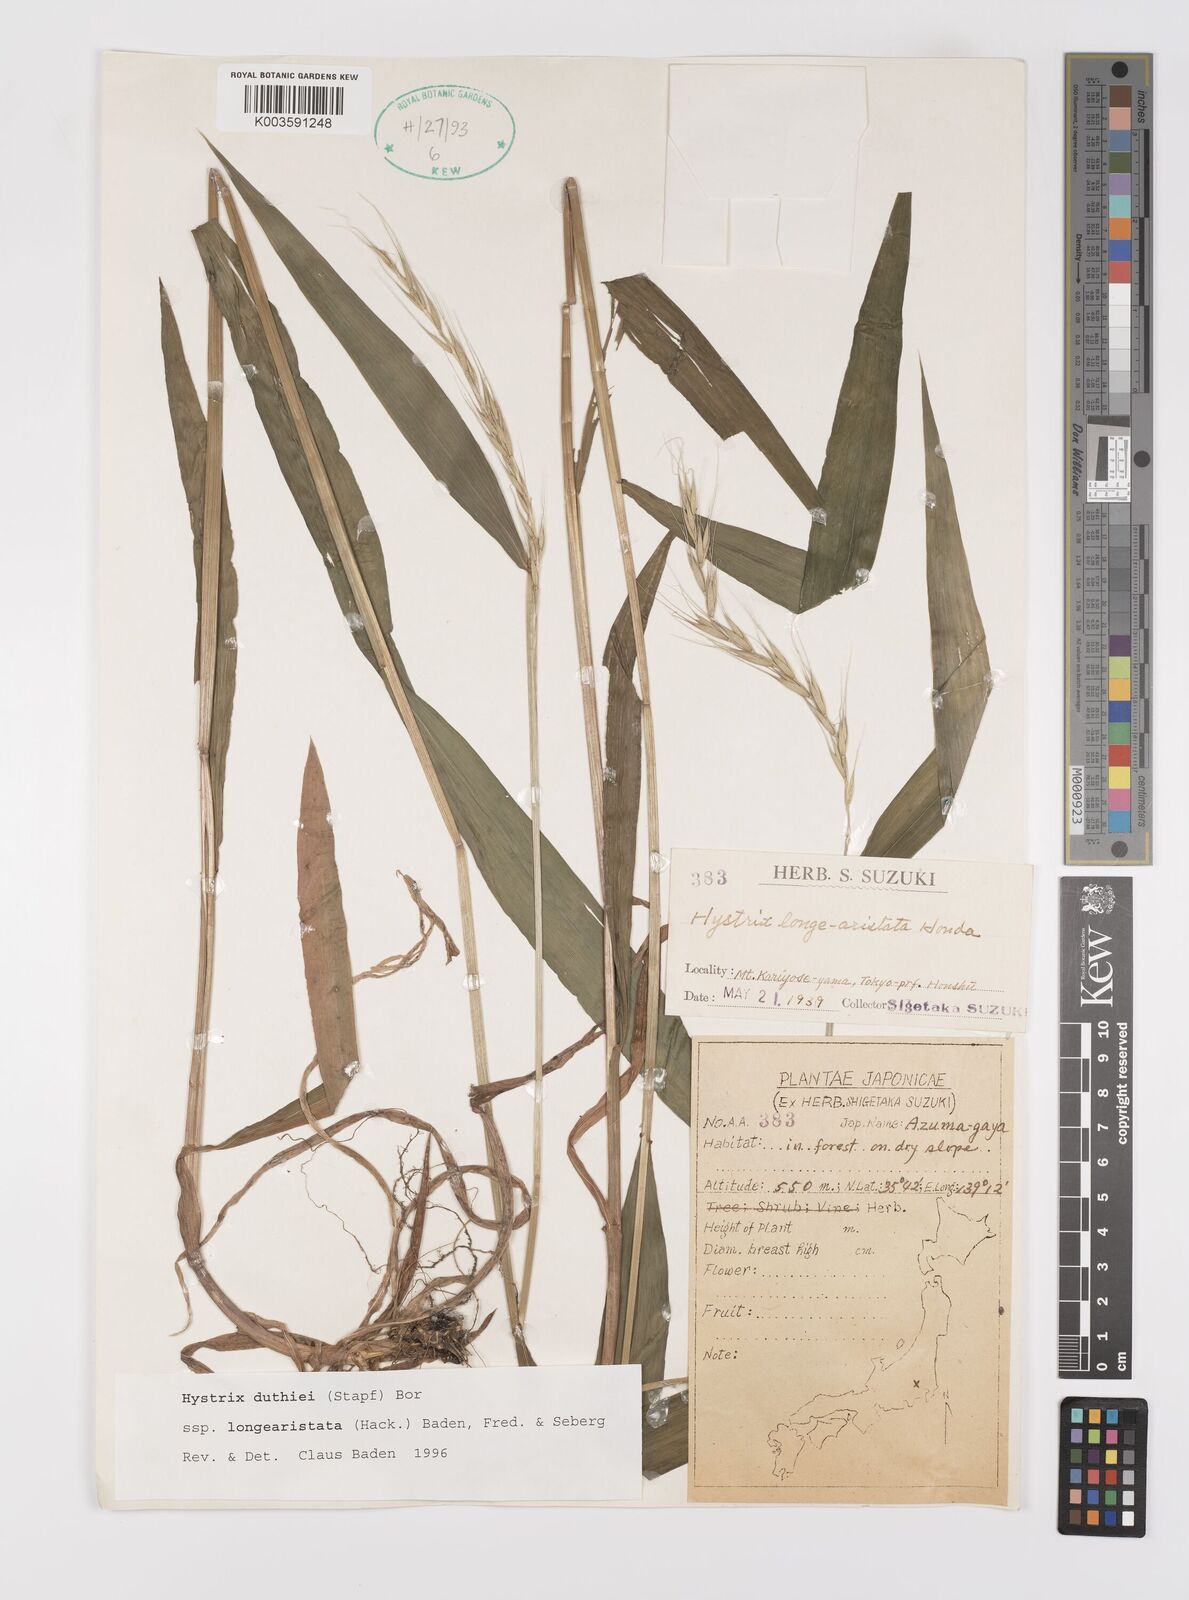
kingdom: Plantae
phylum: Tracheophyta
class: Liliopsida
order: Poales
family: Poaceae
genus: Leymus
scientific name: Leymus duthiei
